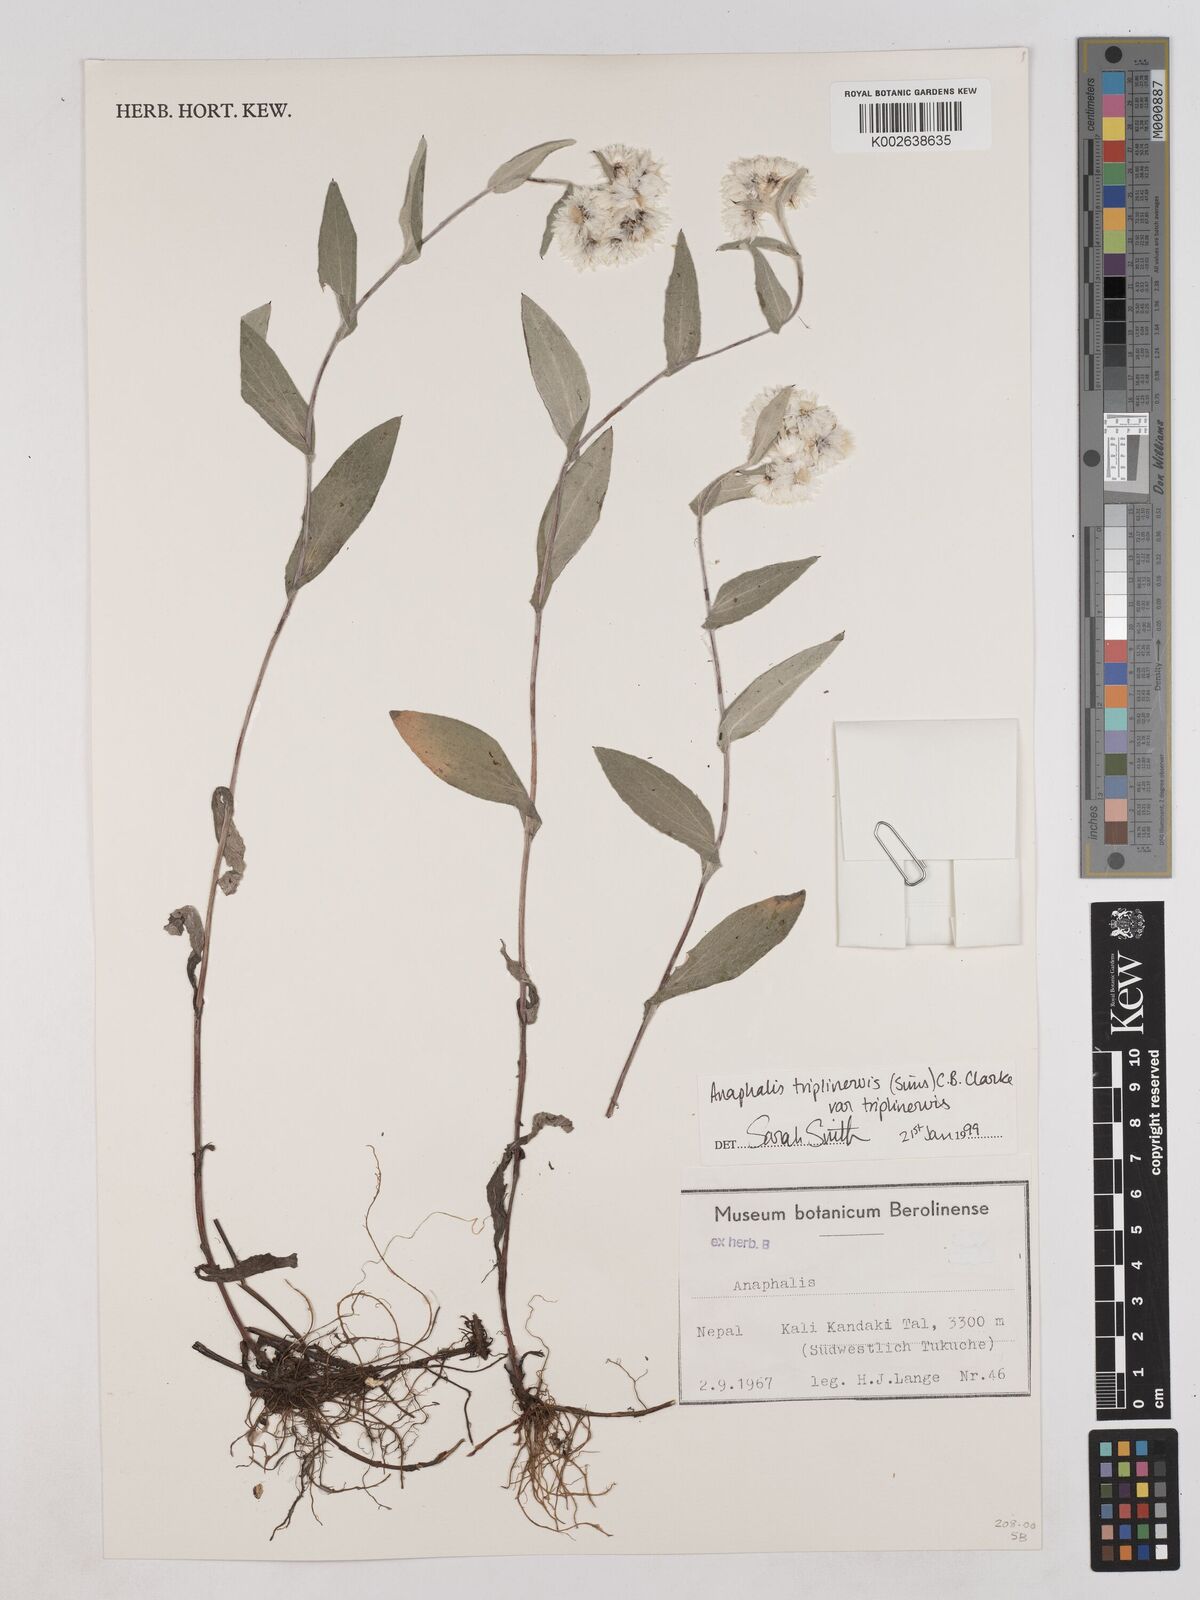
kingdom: Plantae
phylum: Tracheophyta
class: Magnoliopsida
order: Asterales
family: Asteraceae
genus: Anaphalis
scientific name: Anaphalis triplinervis
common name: Pearly everlasting
